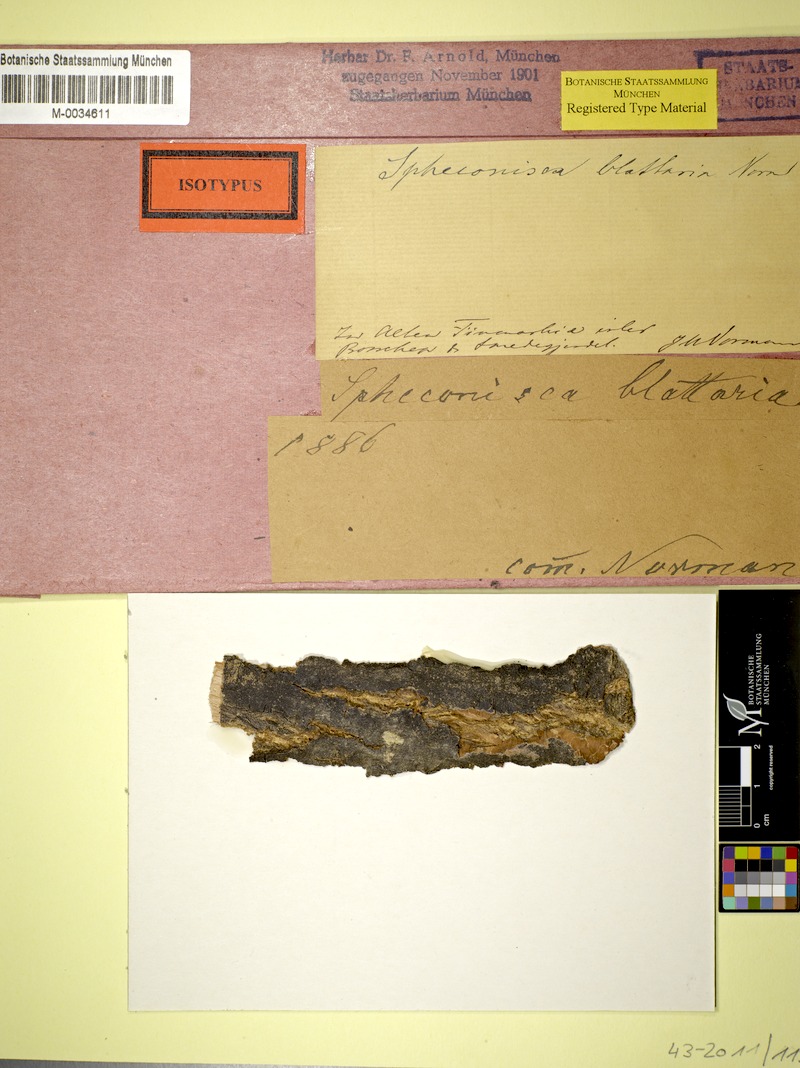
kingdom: Fungi
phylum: Ascomycota
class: Eurotiomycetes
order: Verrucariales
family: Verrucariaceae
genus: Moriola
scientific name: Moriola blattaria
